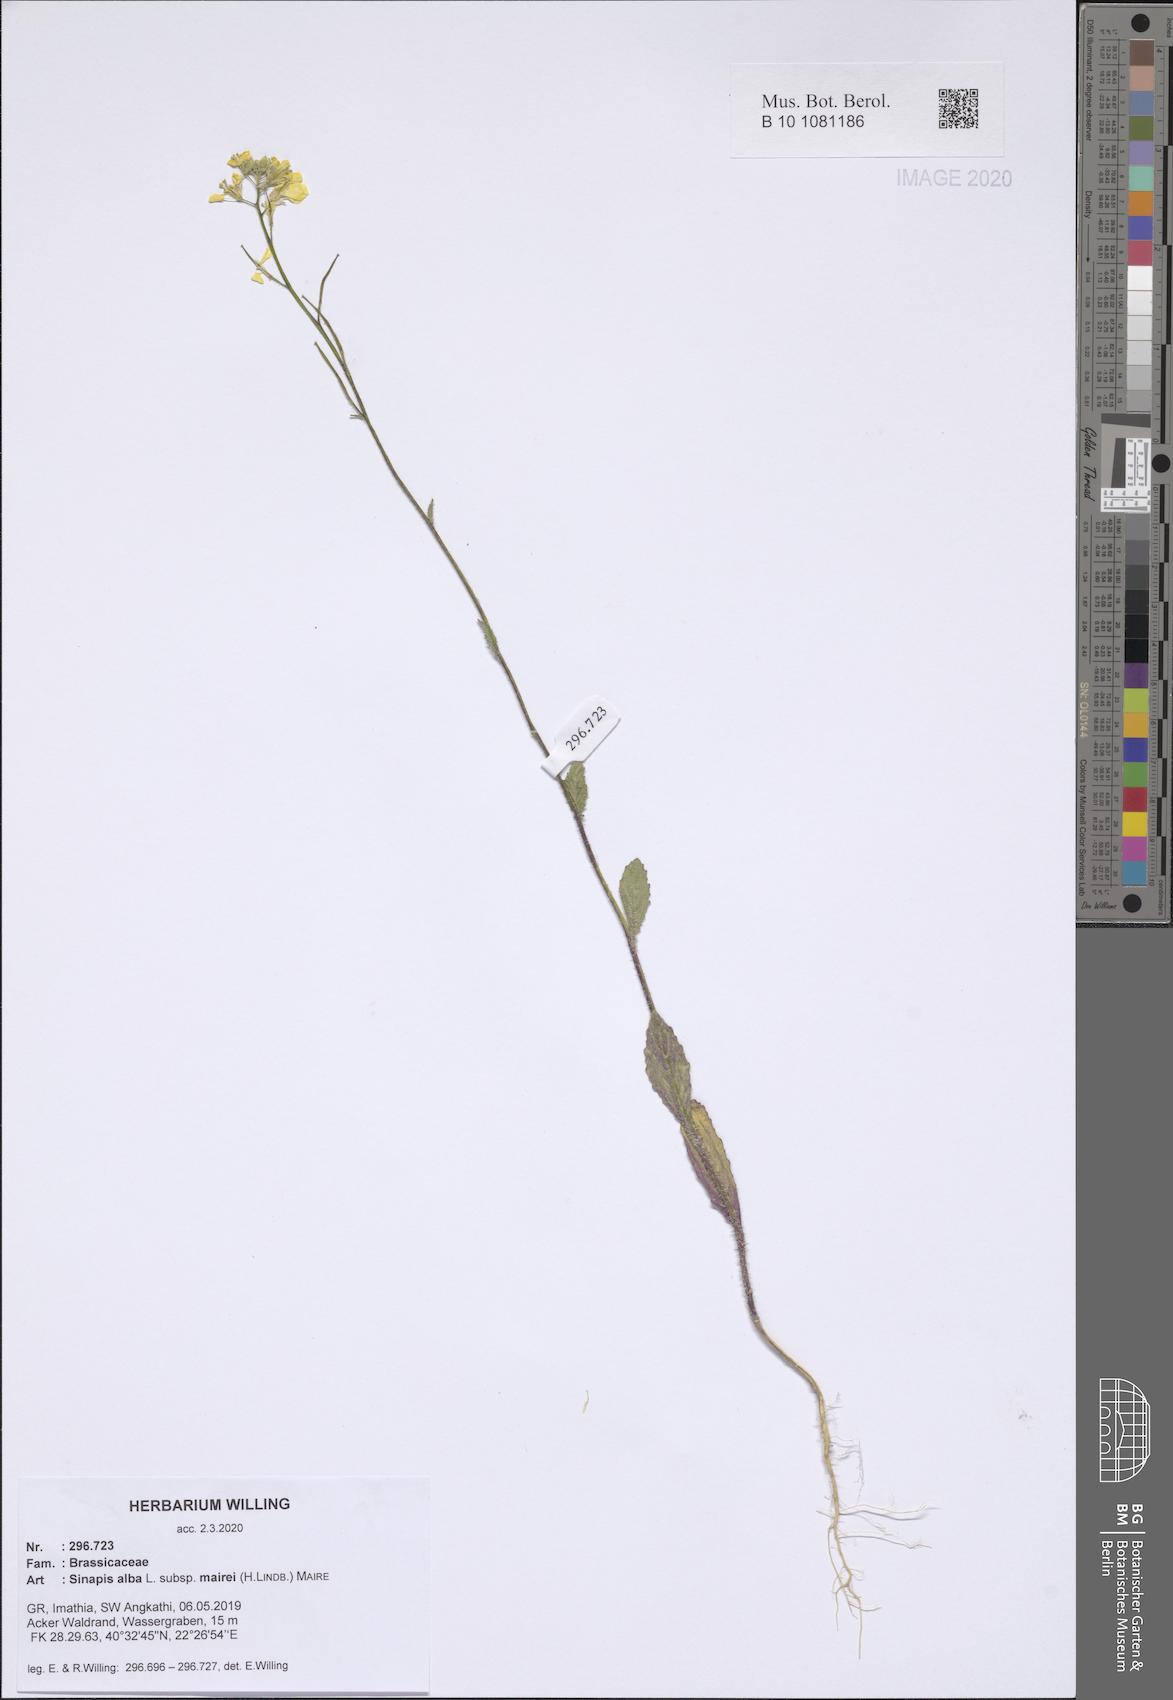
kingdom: Plantae
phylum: Tracheophyta
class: Magnoliopsida
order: Brassicales
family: Brassicaceae
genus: Sinapis
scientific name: Sinapis alba
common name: White mustard
